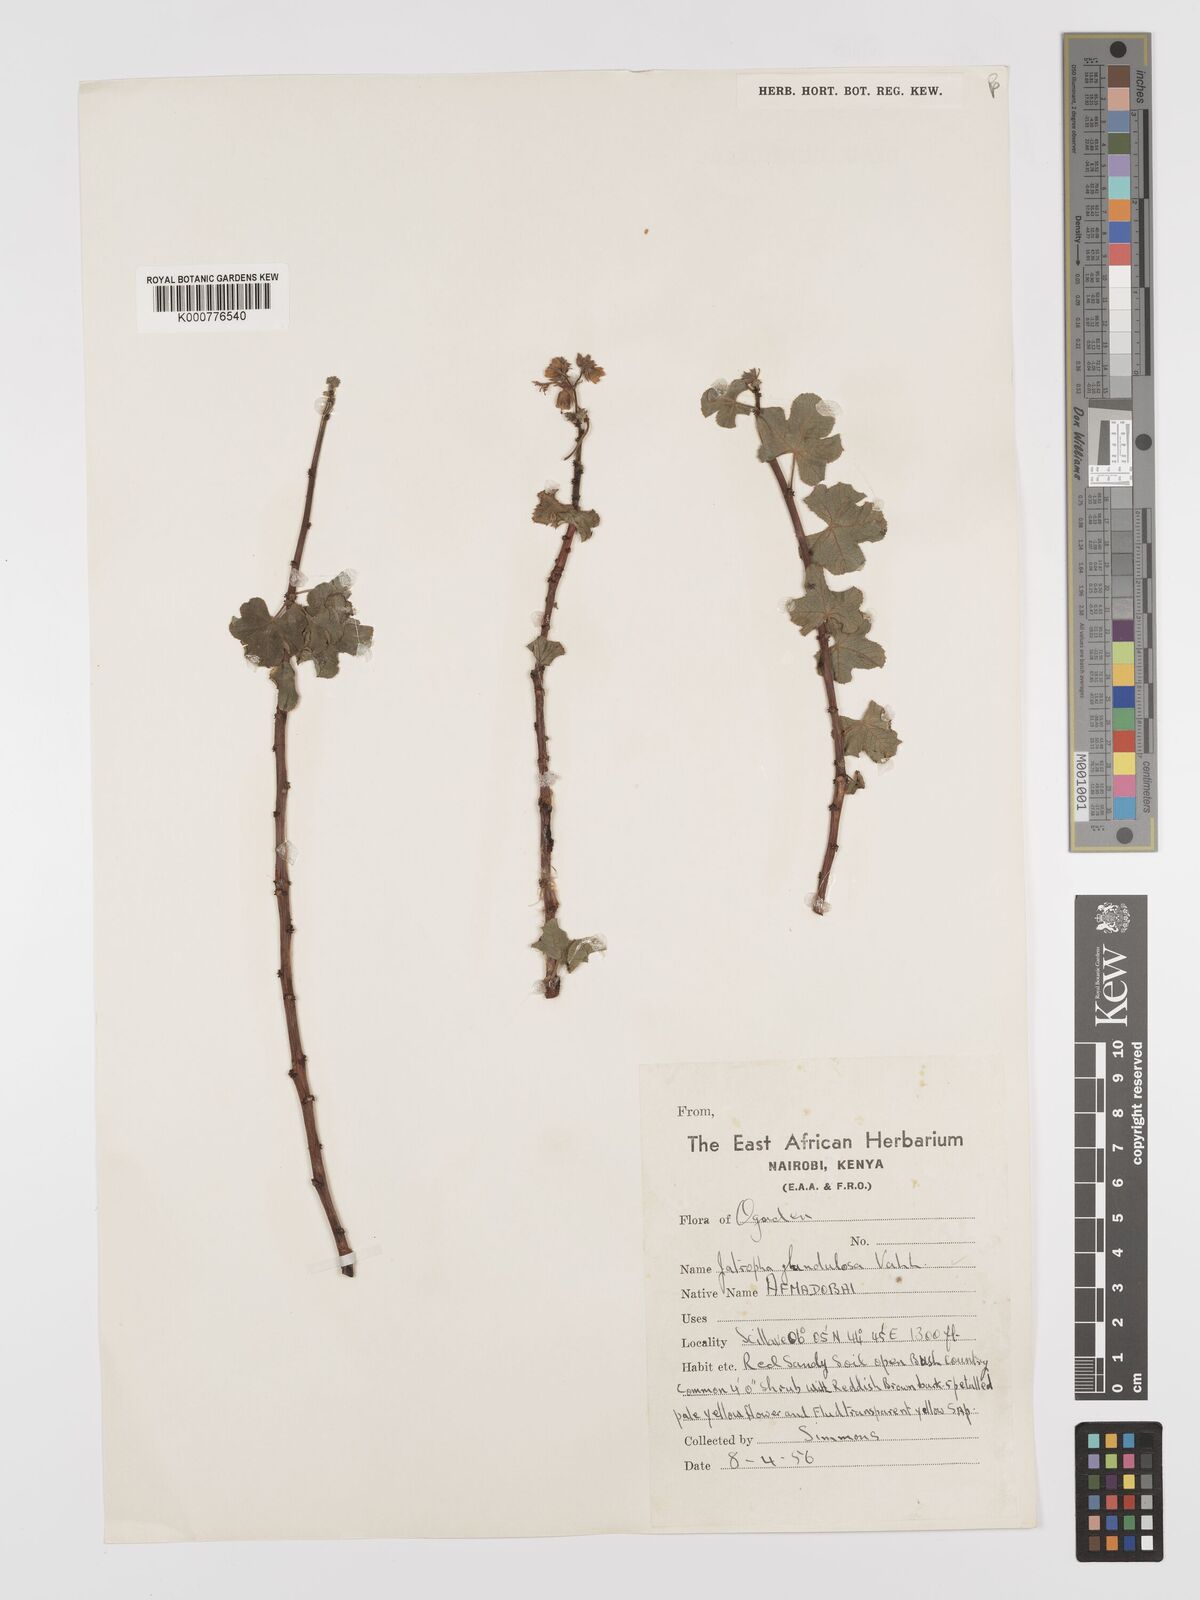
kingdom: Plantae
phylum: Tracheophyta
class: Magnoliopsida
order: Malpighiales
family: Euphorbiaceae
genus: Jatropha
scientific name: Jatropha pelargoniifolia
